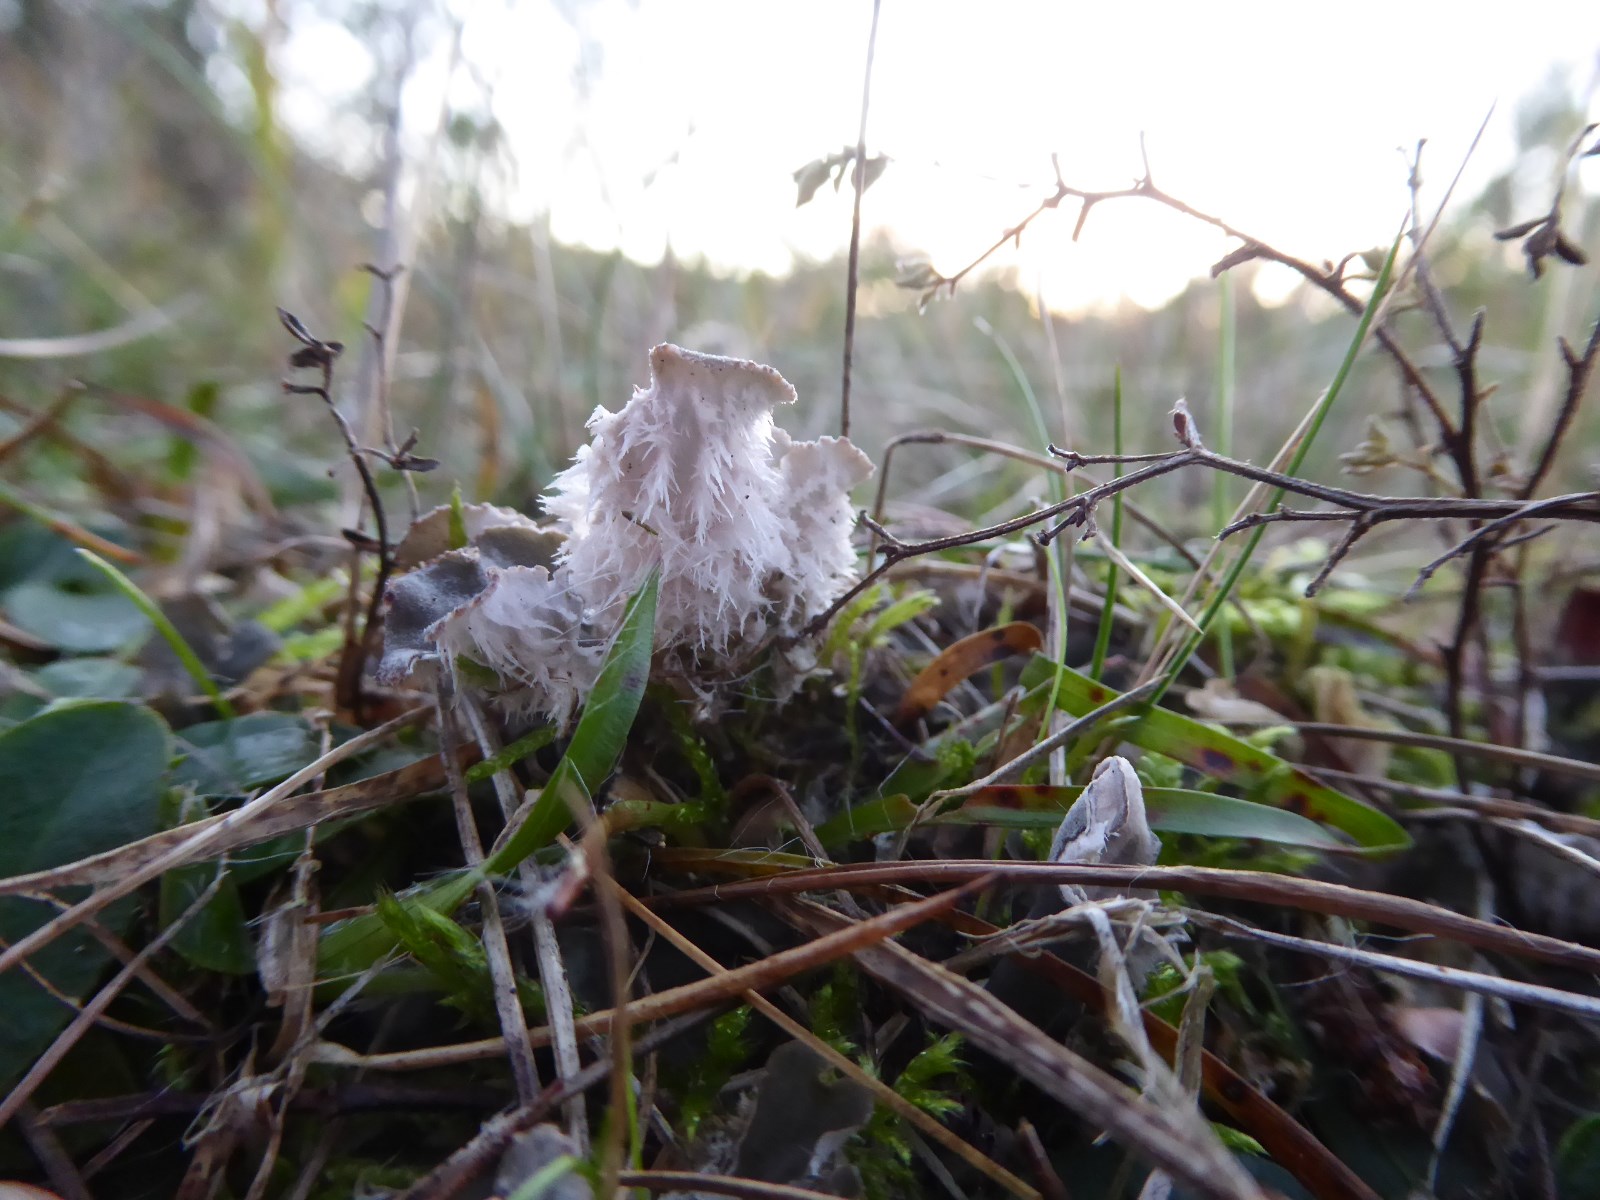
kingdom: Fungi
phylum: Ascomycota
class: Lecanoromycetes
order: Peltigerales
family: Peltigeraceae
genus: Peltigera
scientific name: Peltigera canina
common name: hunde-skjoldlav
